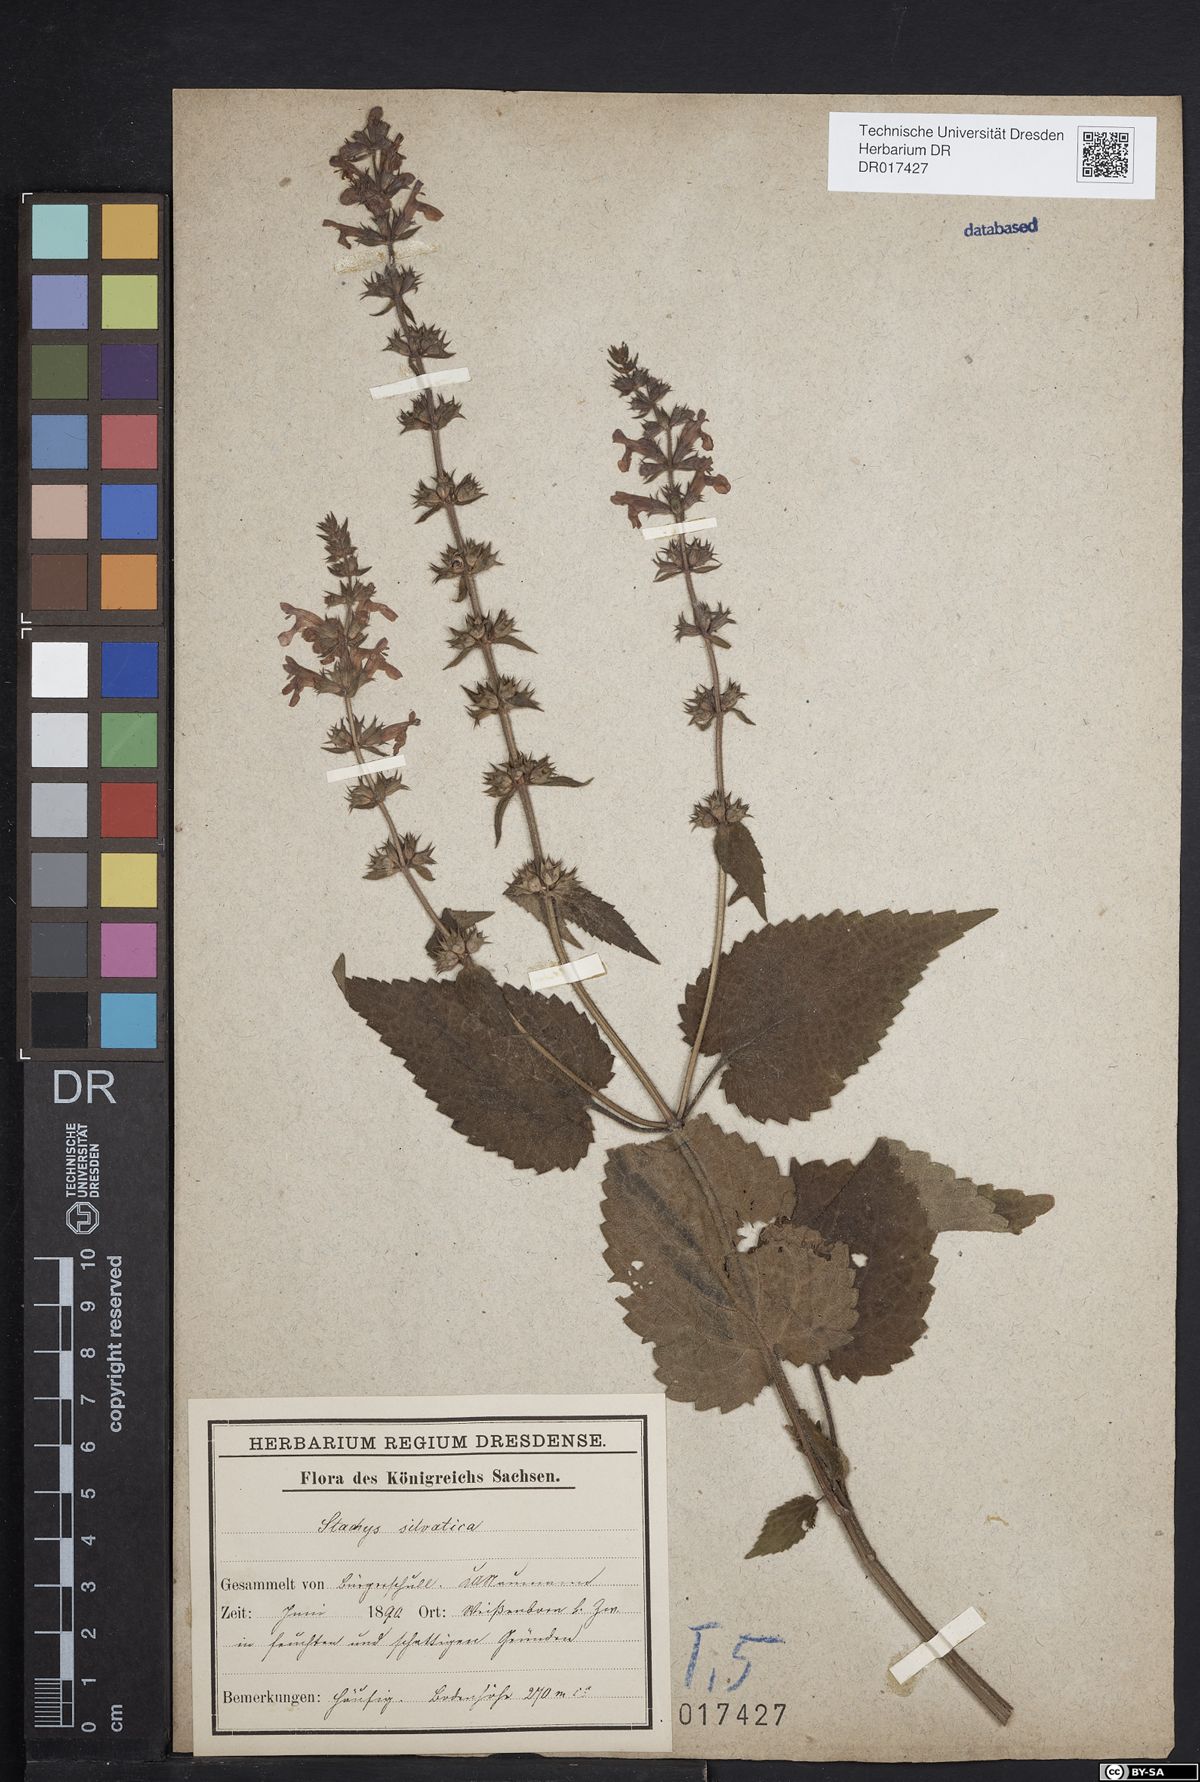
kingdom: Plantae
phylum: Tracheophyta
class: Magnoliopsida
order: Lamiales
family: Lamiaceae
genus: Stachys
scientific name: Stachys sylvatica
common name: Hedge woundwort
